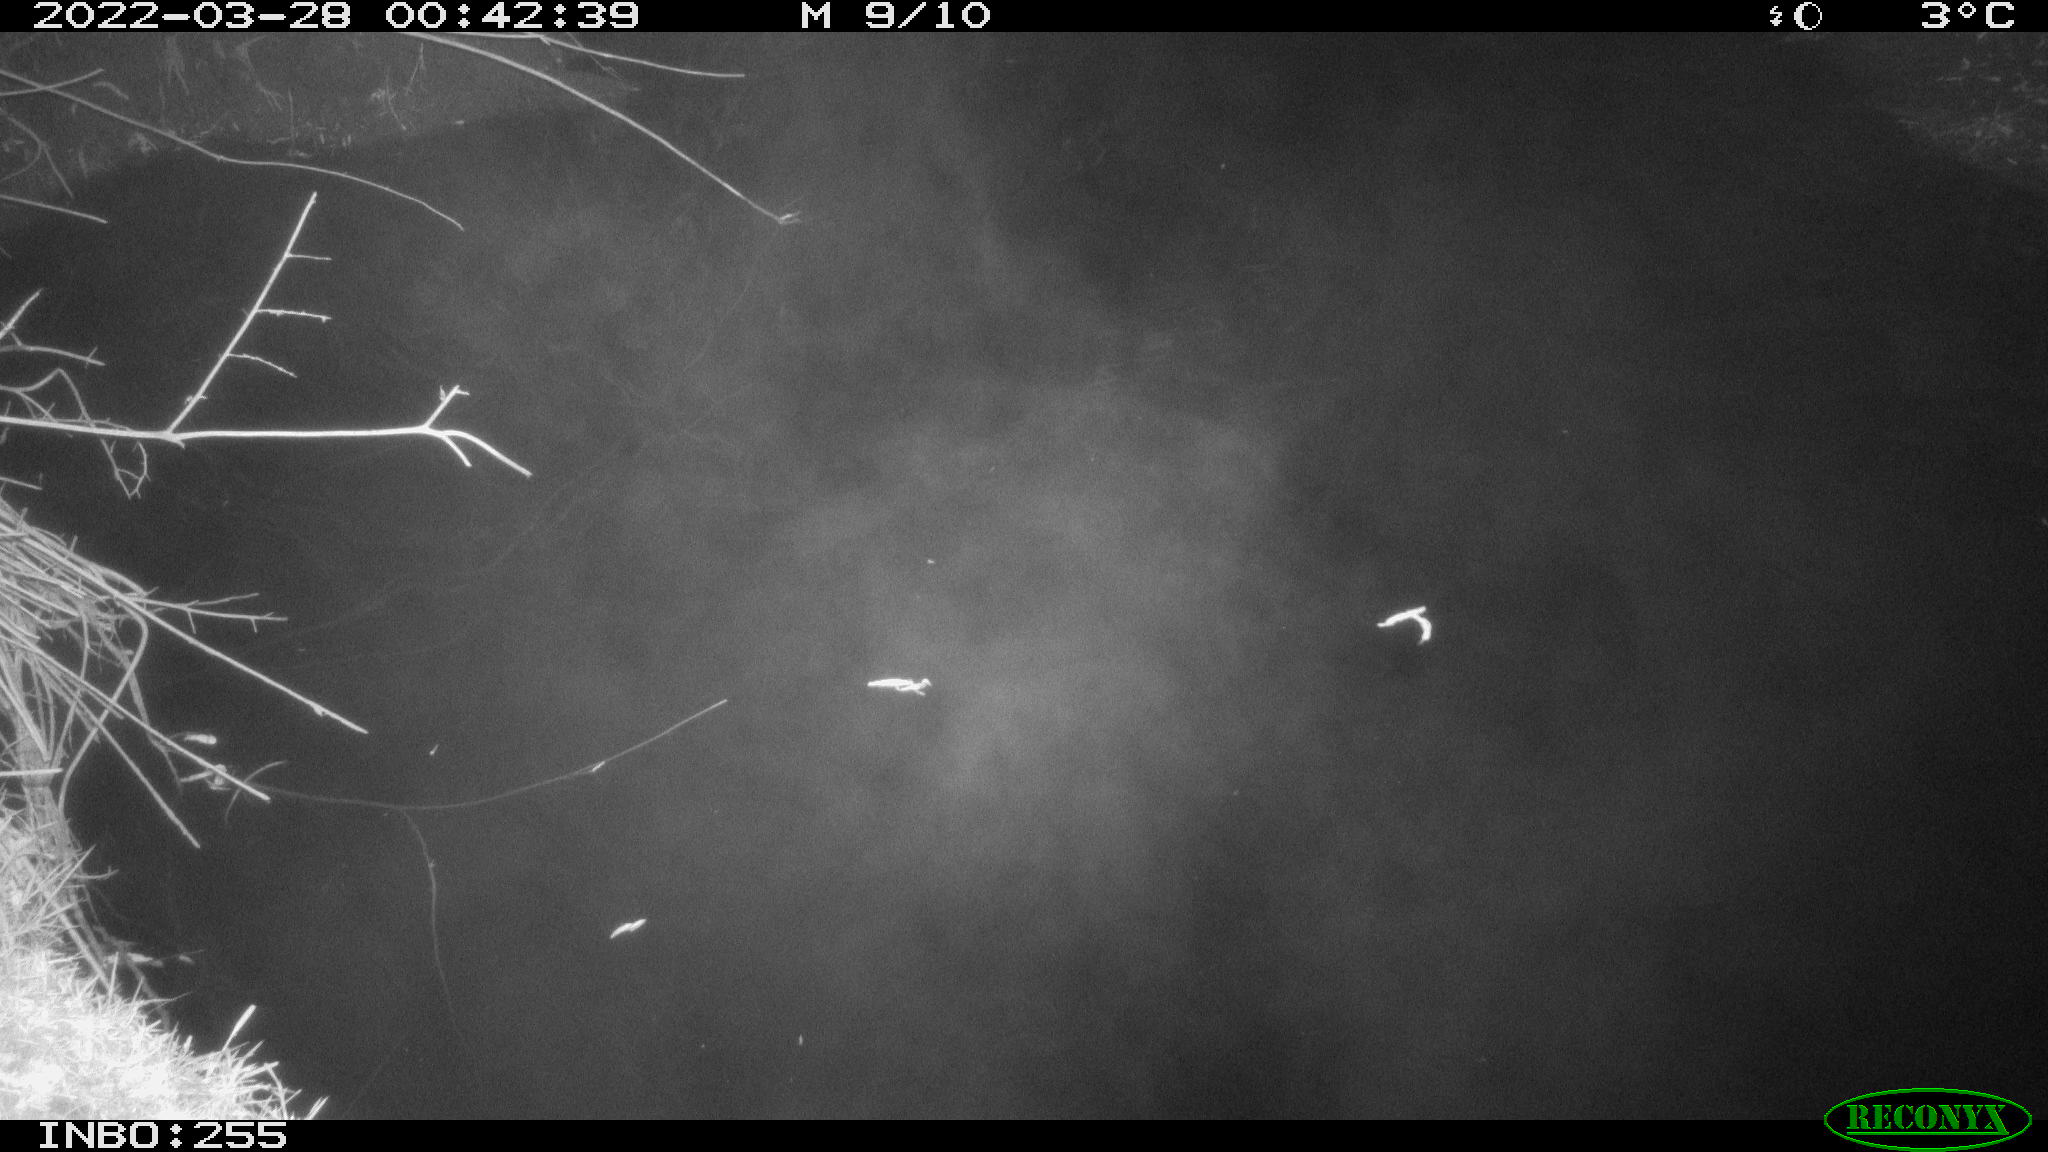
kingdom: Animalia
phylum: Chordata
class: Aves
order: Anseriformes
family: Anatidae
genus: Anas
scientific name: Anas platyrhynchos
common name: Mallard
